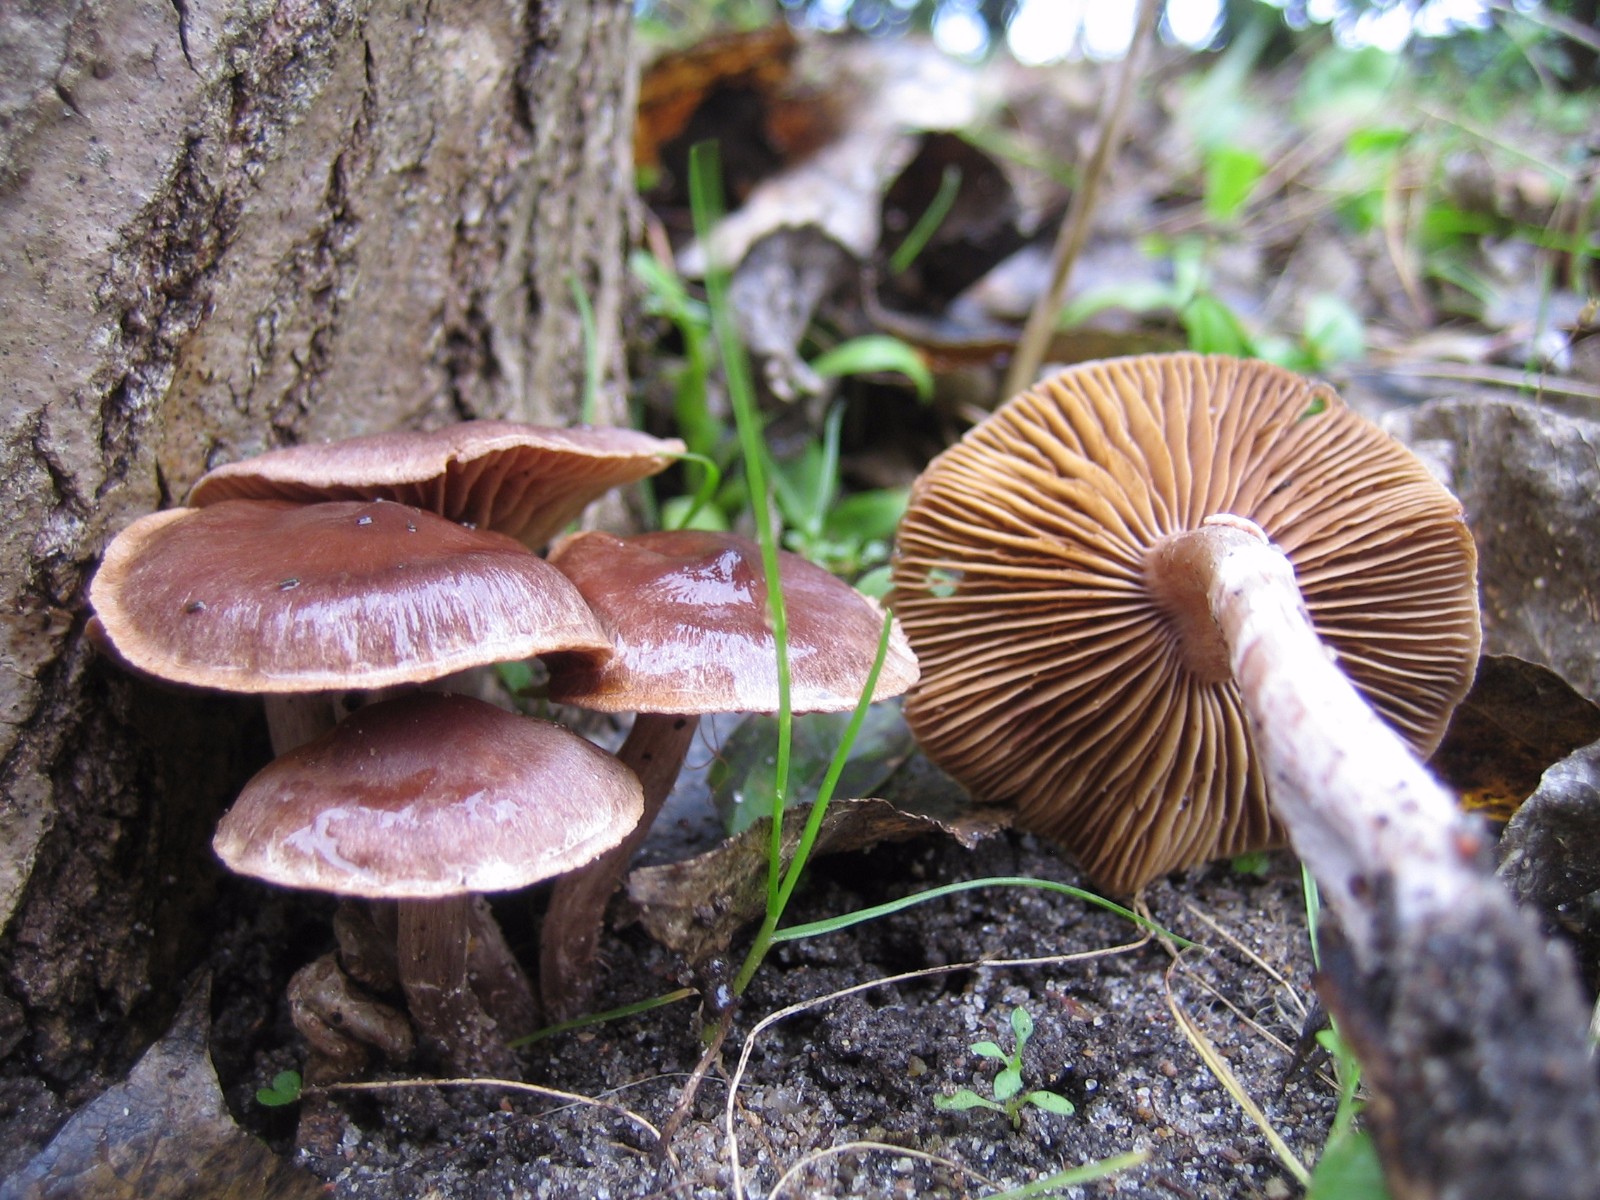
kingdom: Fungi
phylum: Basidiomycota
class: Agaricomycetes
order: Agaricales
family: Cortinariaceae
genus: Cortinarius
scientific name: Cortinarius
